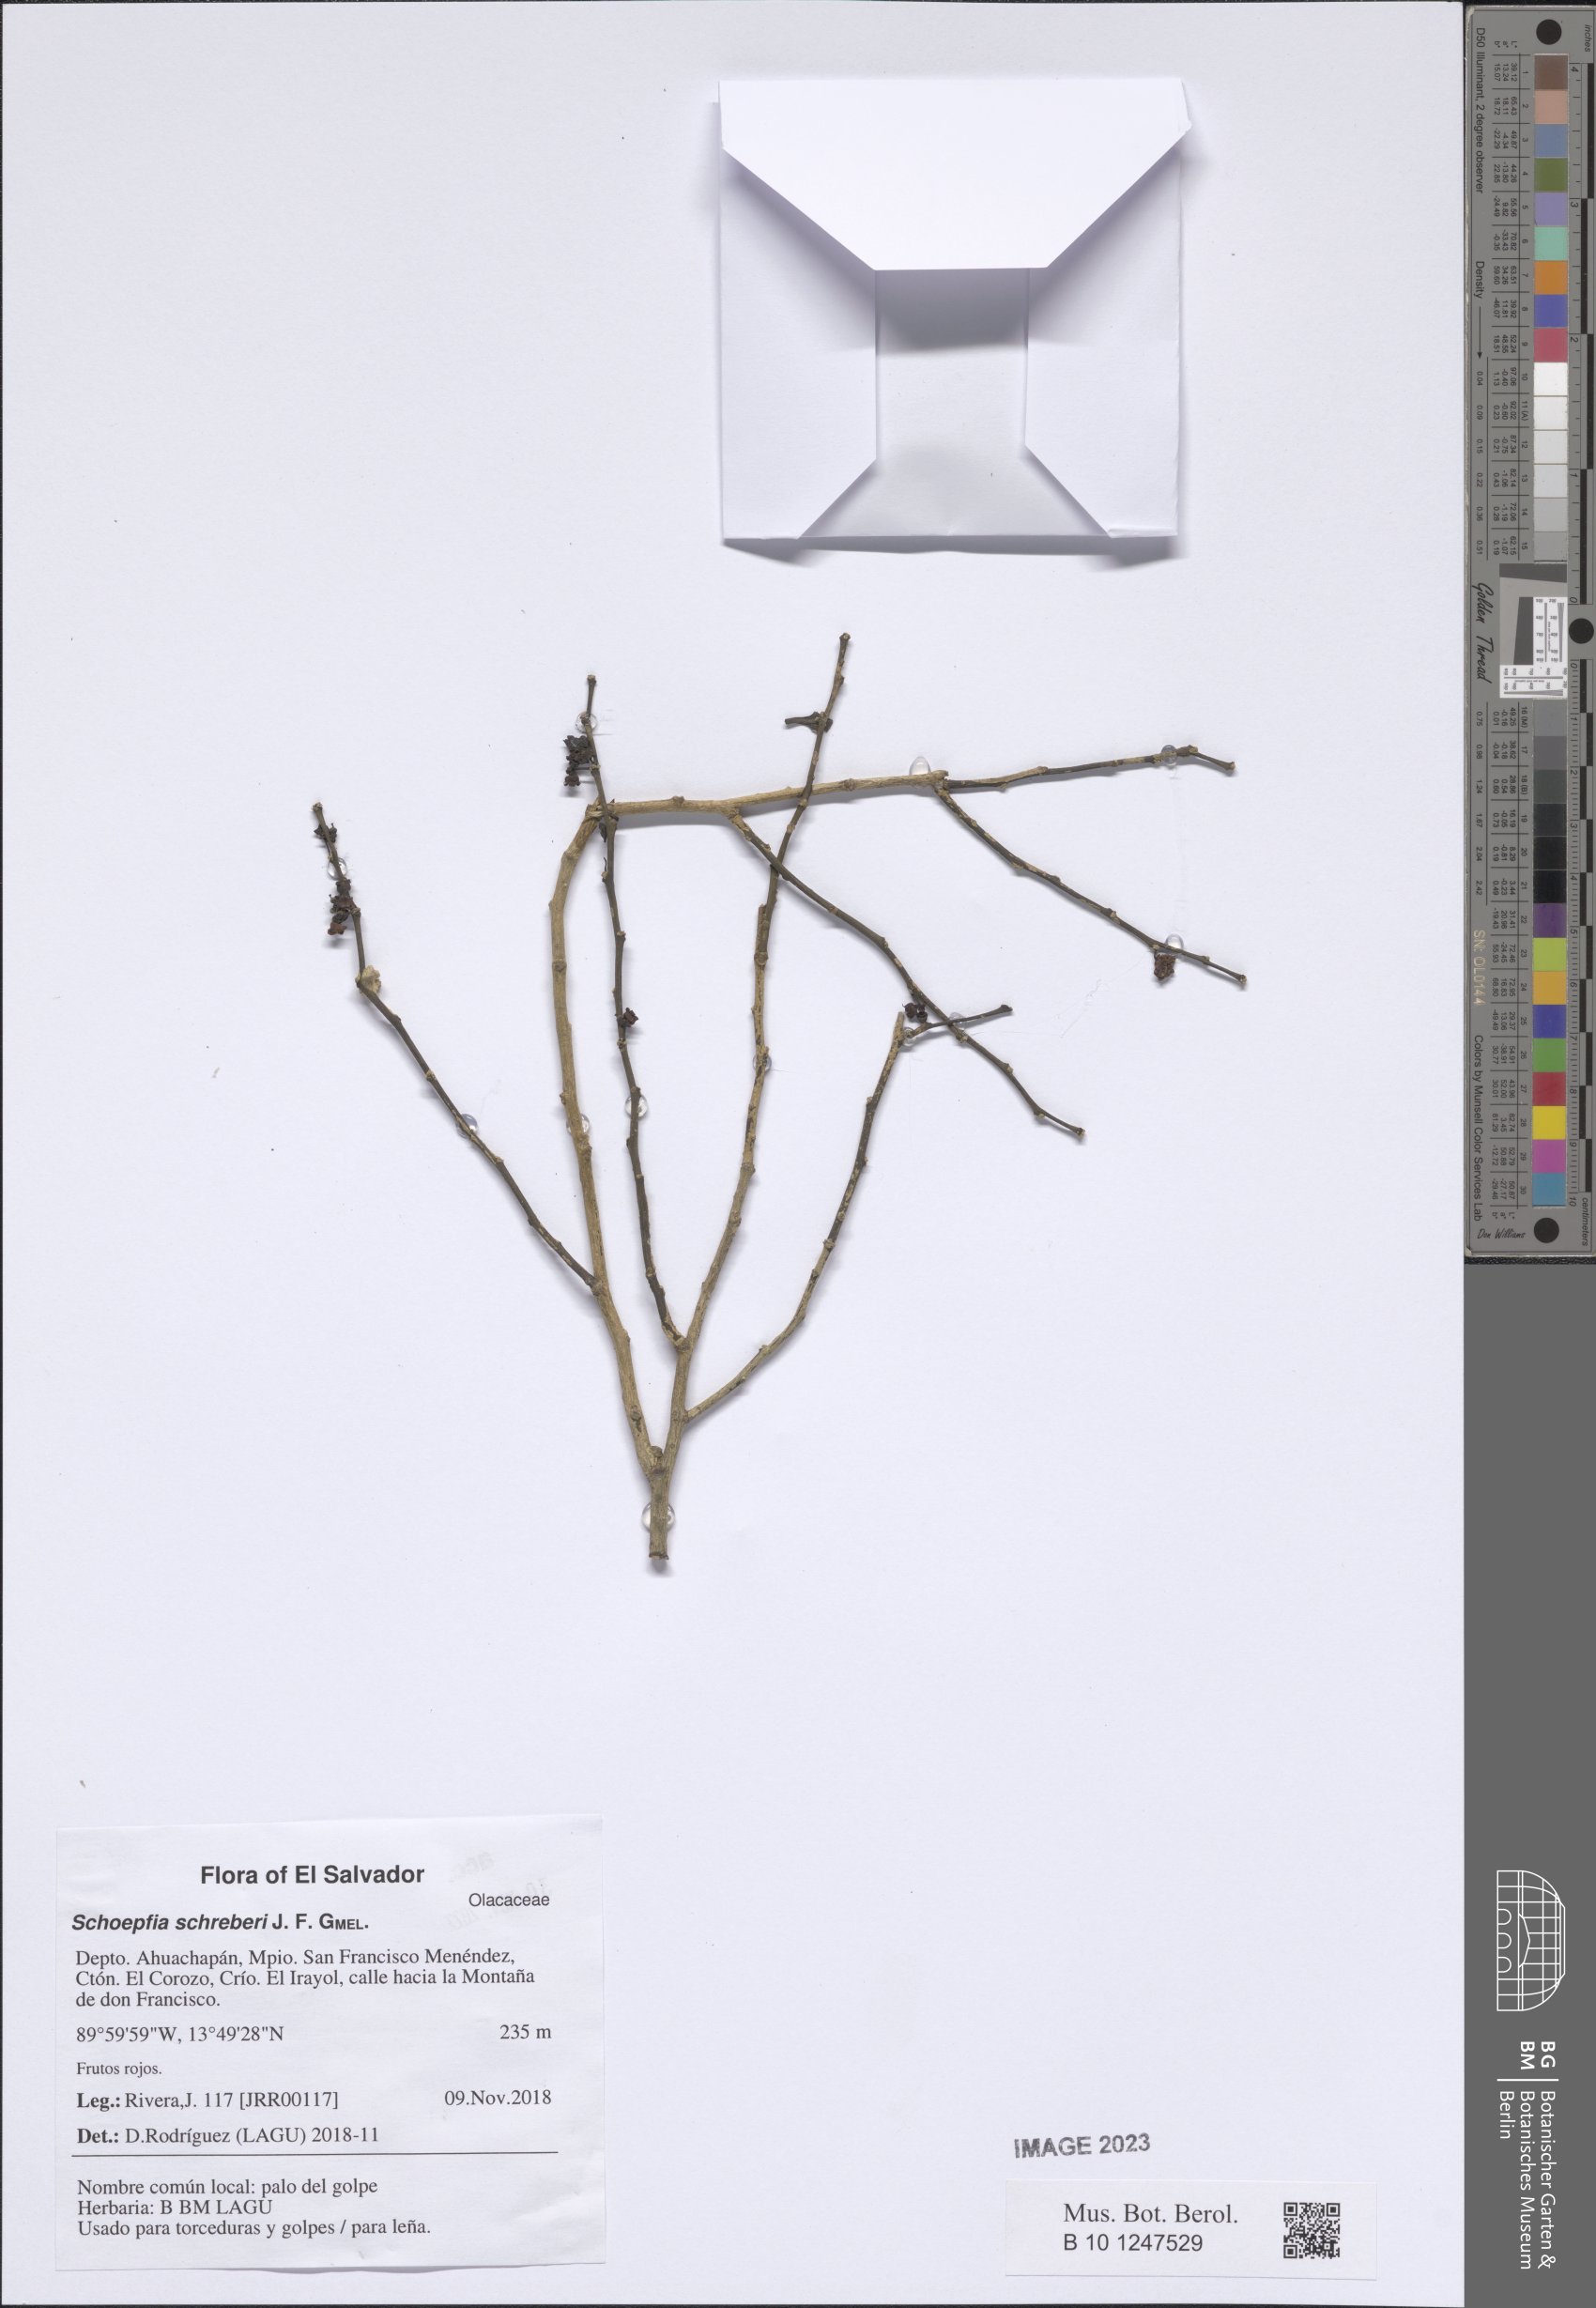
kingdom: Plantae
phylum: Tracheophyta
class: Magnoliopsida
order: Santalales
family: Schoepfiaceae
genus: Schoepfia
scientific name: Schoepfia schreberi
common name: Gulf graytwig
